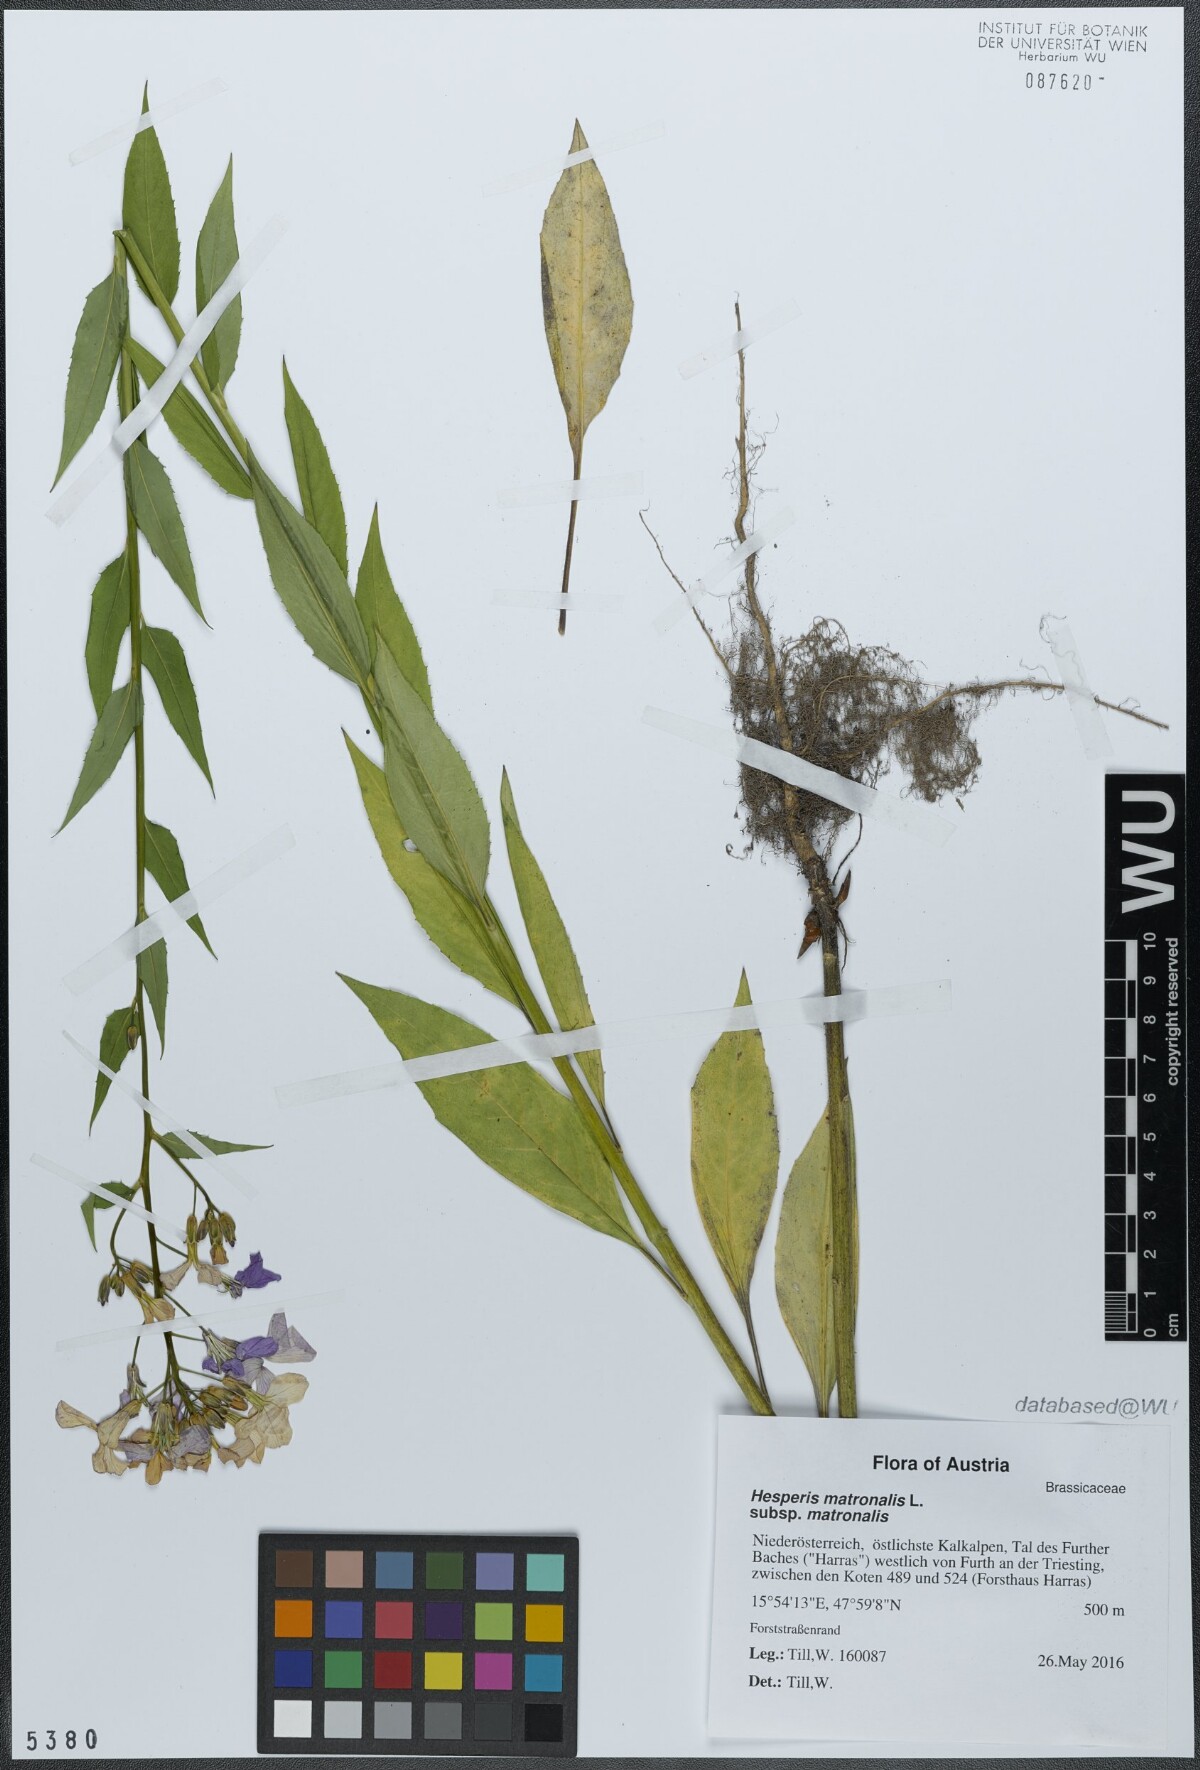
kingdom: Plantae
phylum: Tracheophyta
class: Magnoliopsida
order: Brassicales
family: Brassicaceae
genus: Hesperis
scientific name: Hesperis matronalis
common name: Dame's-violet
